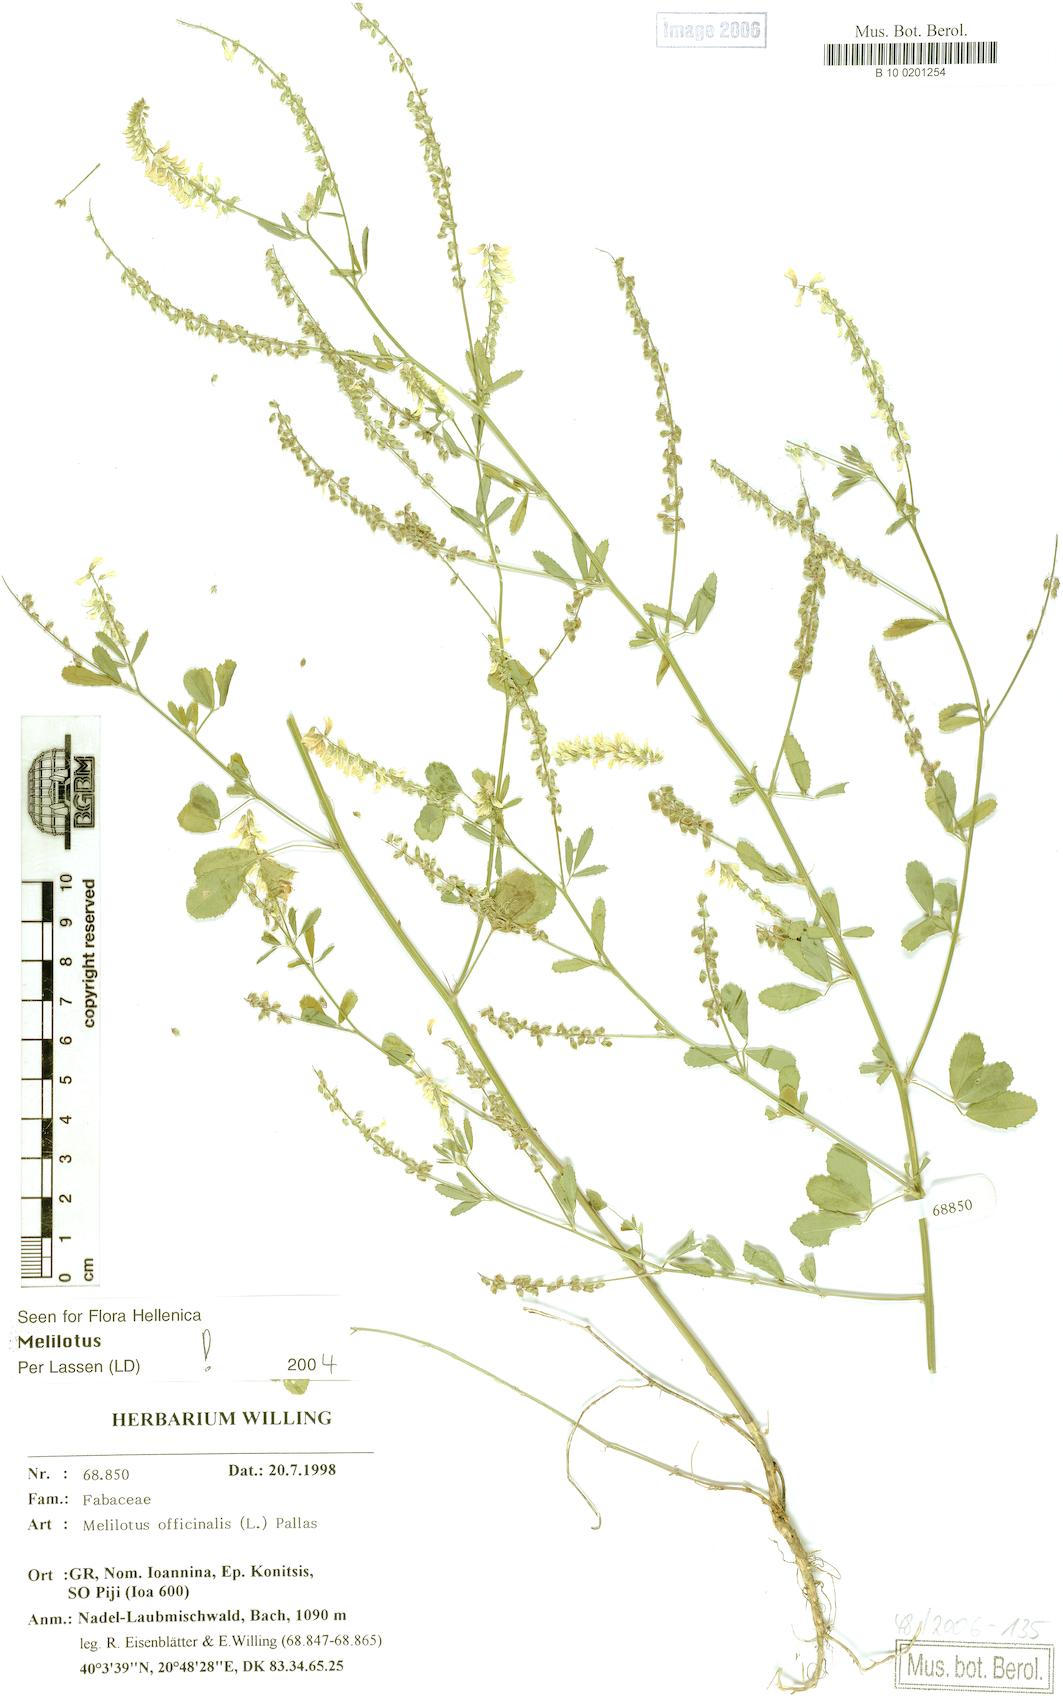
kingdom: Plantae
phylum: Tracheophyta
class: Magnoliopsida
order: Fabales
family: Fabaceae
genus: Melilotus
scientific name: Melilotus officinalis
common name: Sweetclover
